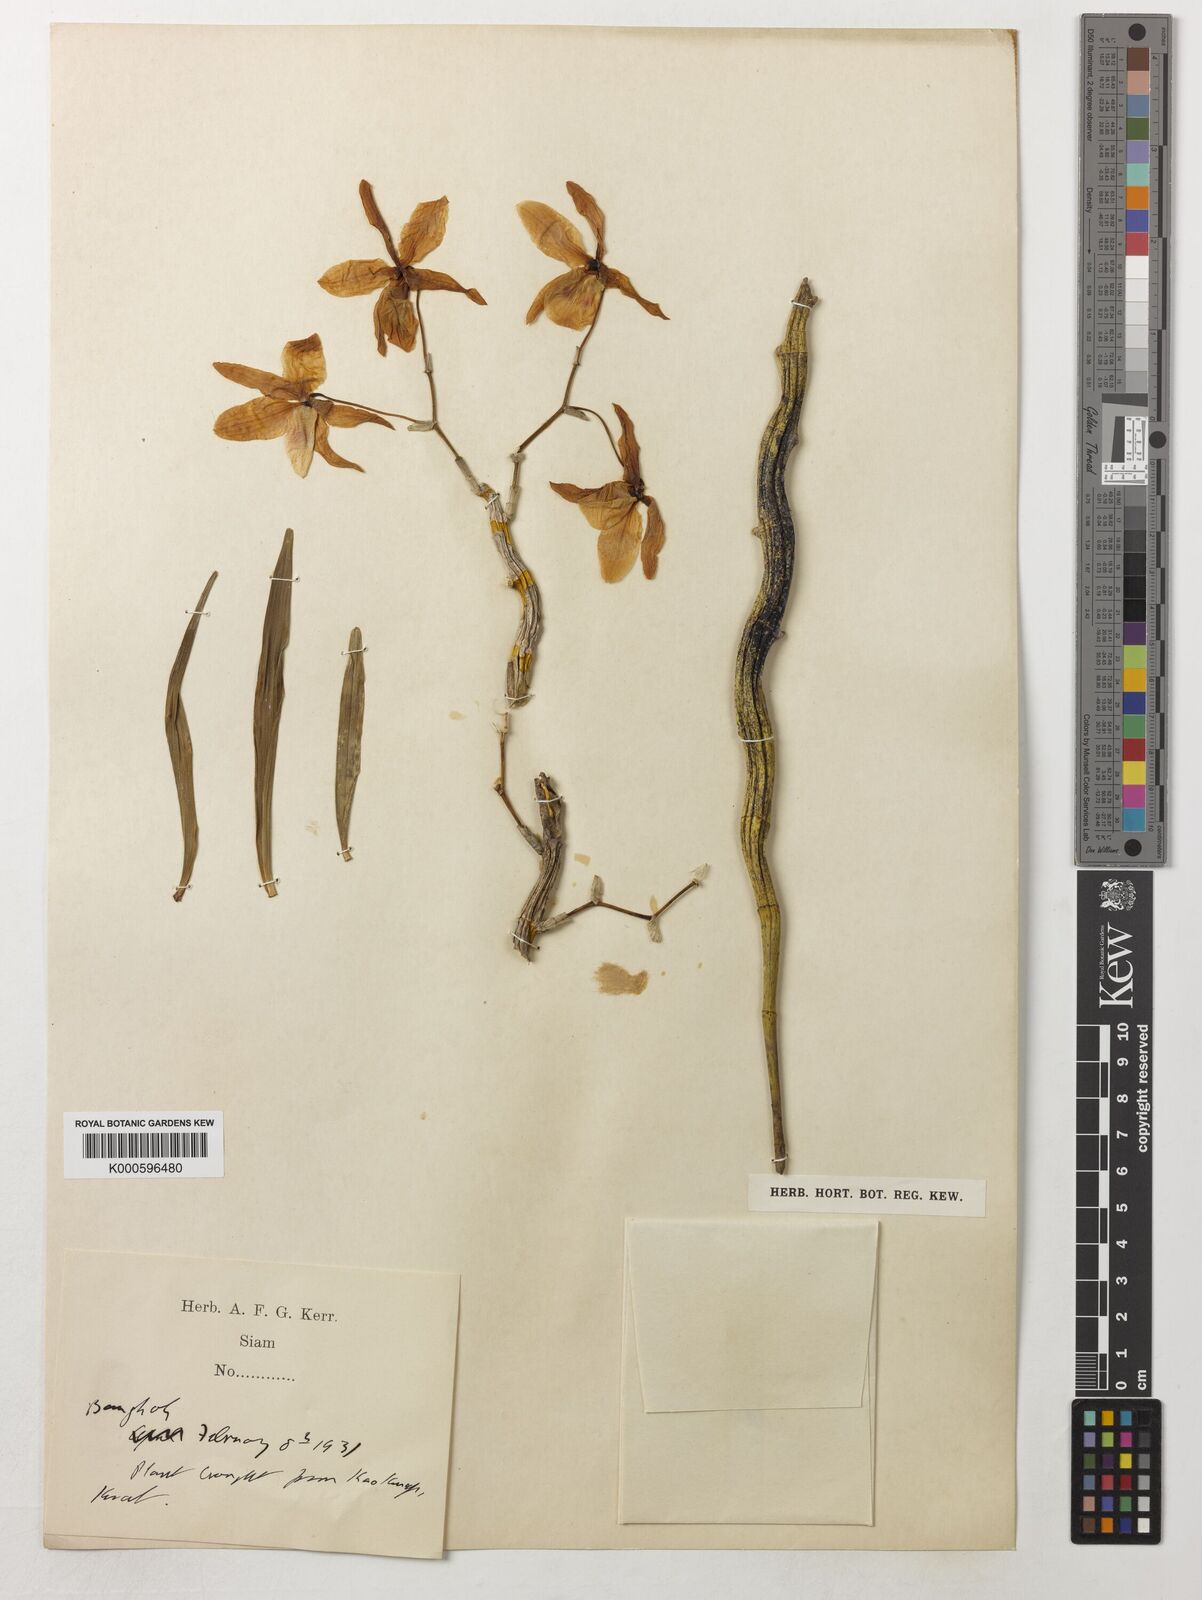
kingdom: Plantae
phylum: Tracheophyta
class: Liliopsida
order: Asparagales
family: Orchidaceae
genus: Dendrobium
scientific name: Dendrobium friedericksianum
